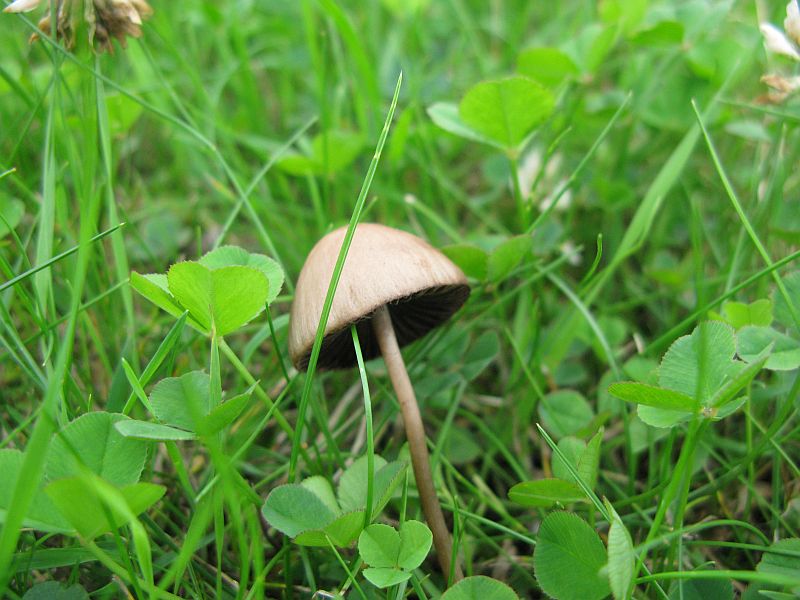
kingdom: Fungi
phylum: Basidiomycota
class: Agaricomycetes
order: Agaricales
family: Bolbitiaceae
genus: Panaeolina
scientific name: Panaeolina foenisecii
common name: høslætsvamp
